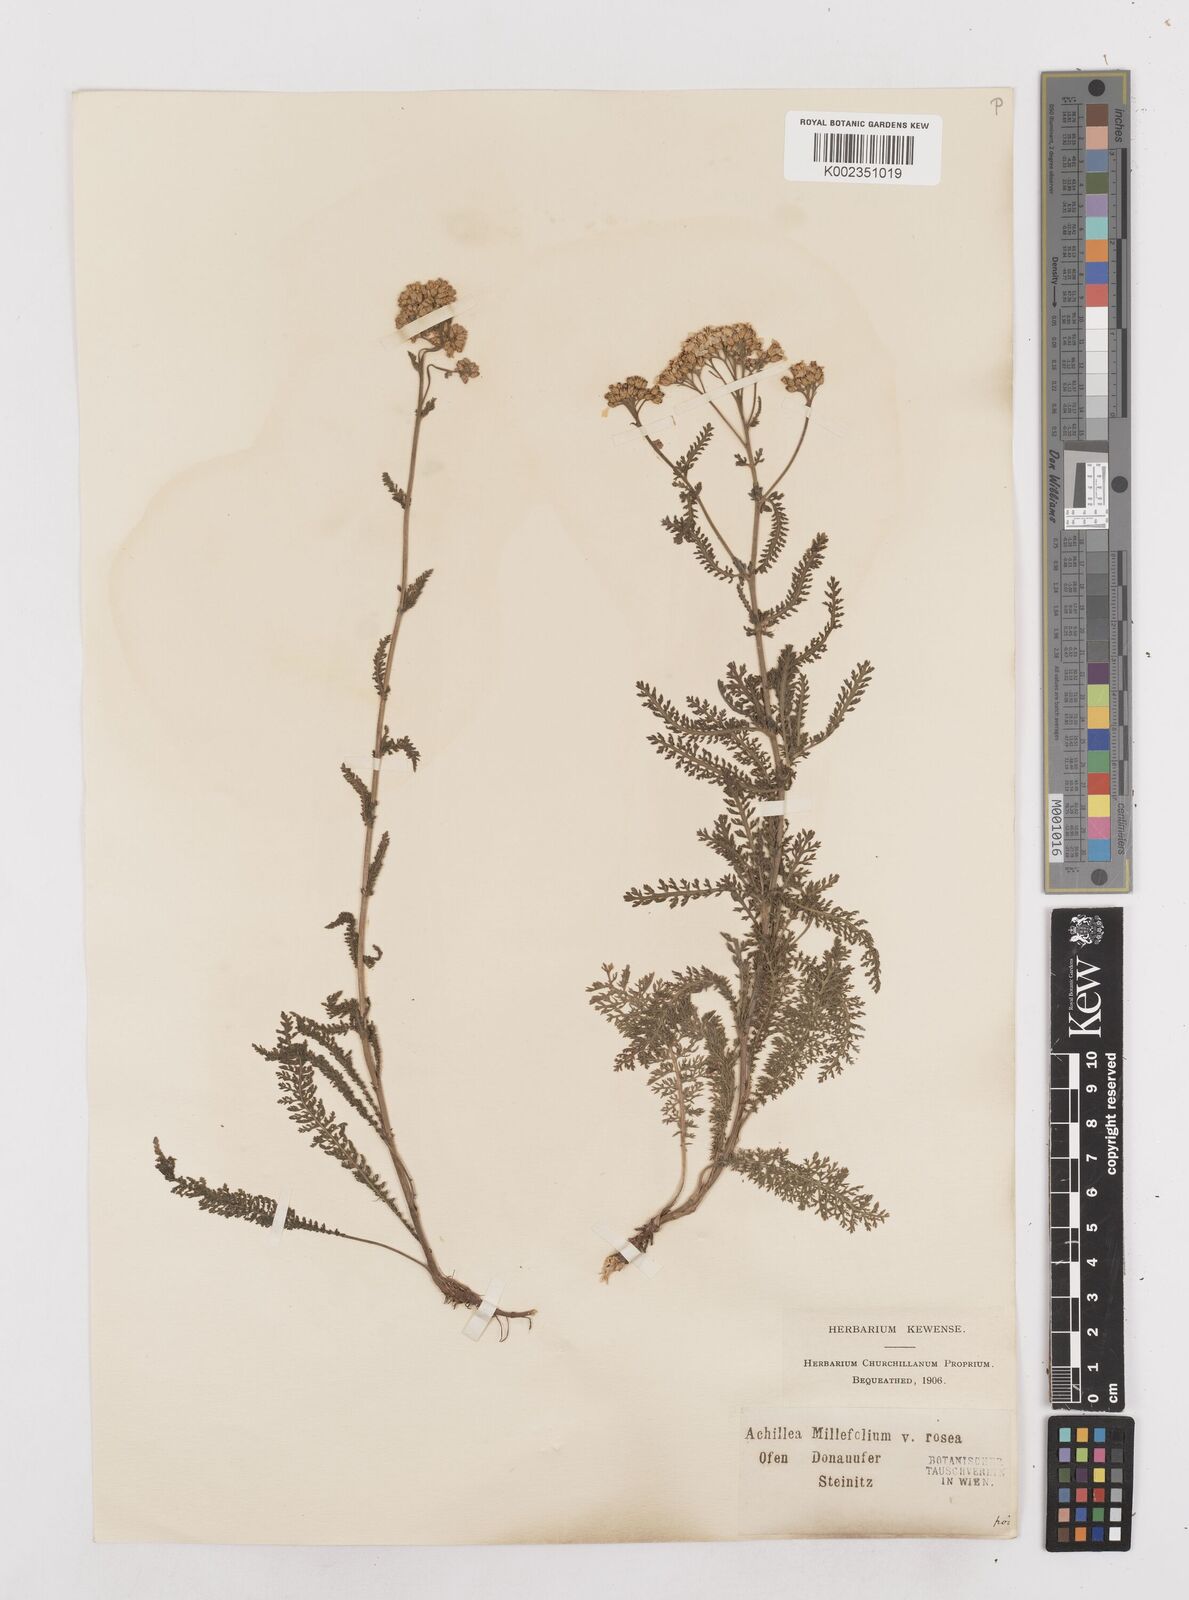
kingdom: Plantae
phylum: Tracheophyta
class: Magnoliopsida
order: Asterales
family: Asteraceae
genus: Achillea
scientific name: Achillea millefolium
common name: Yarrow
